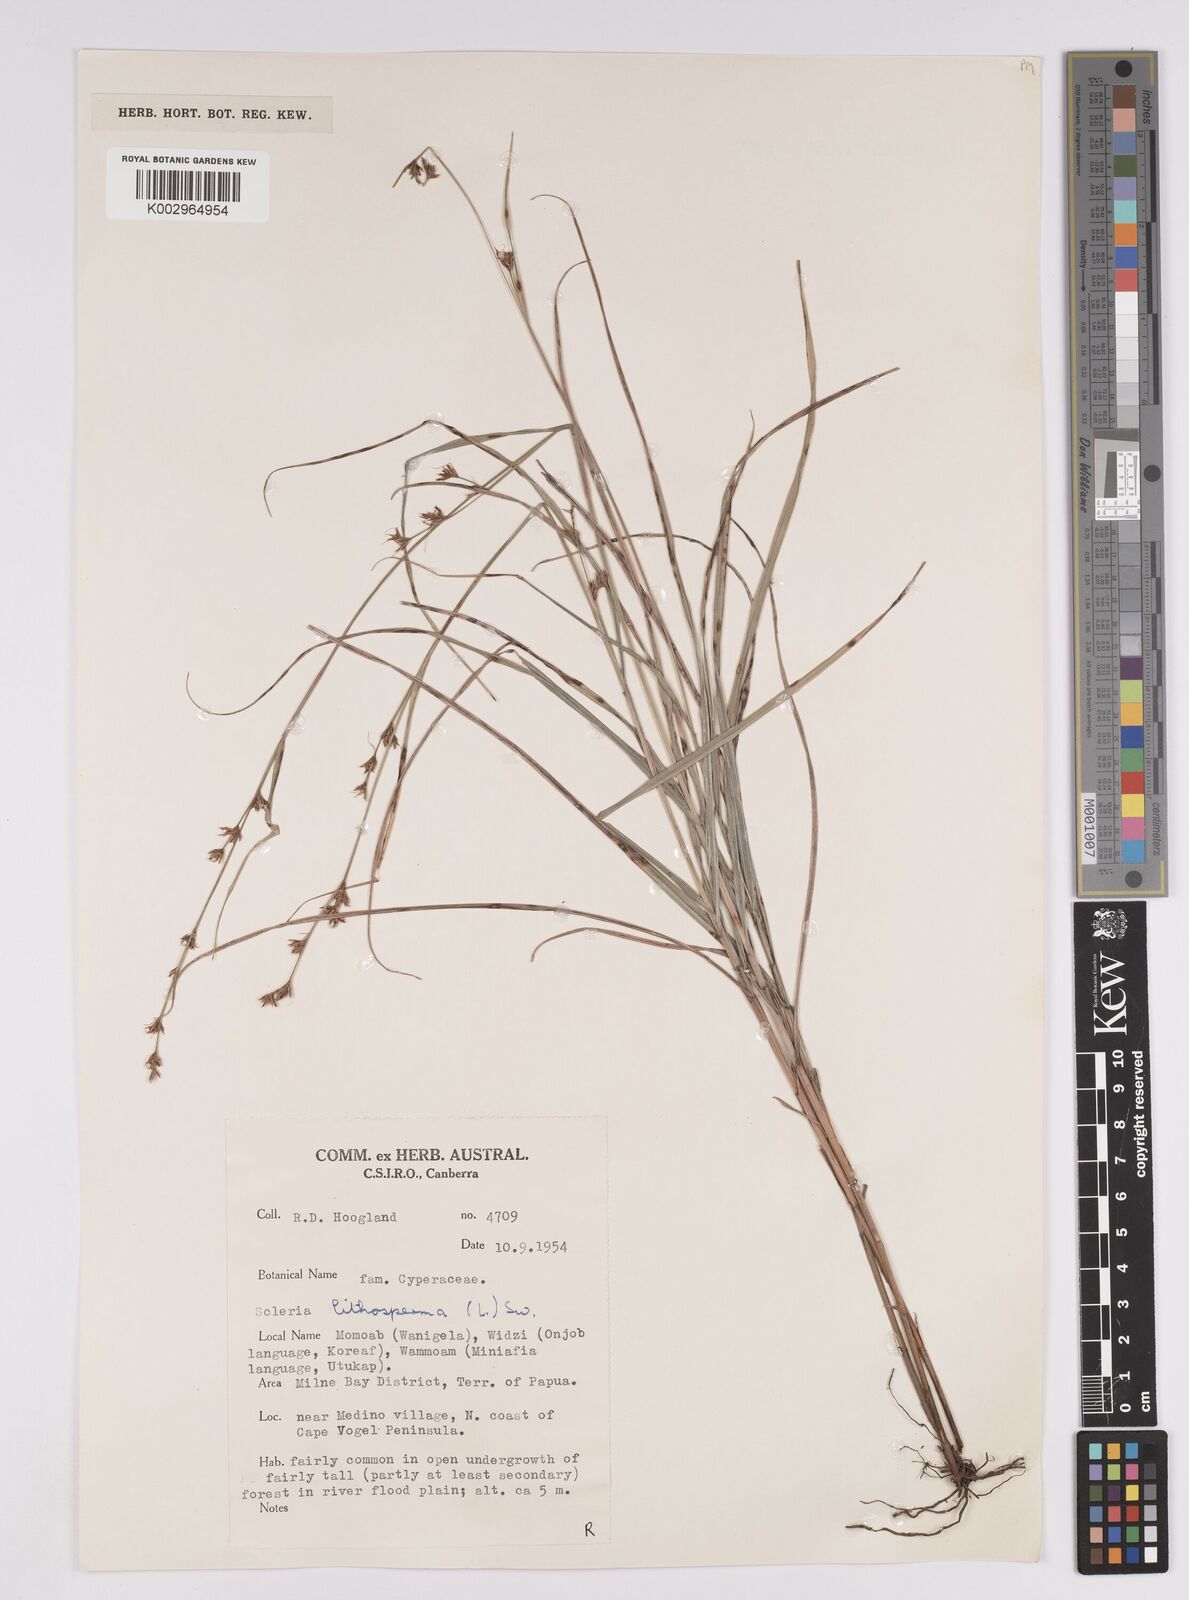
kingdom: Plantae
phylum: Tracheophyta
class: Liliopsida
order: Poales
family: Cyperaceae
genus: Scleria
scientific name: Scleria lithosperma
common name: Florida keys nut-rush
